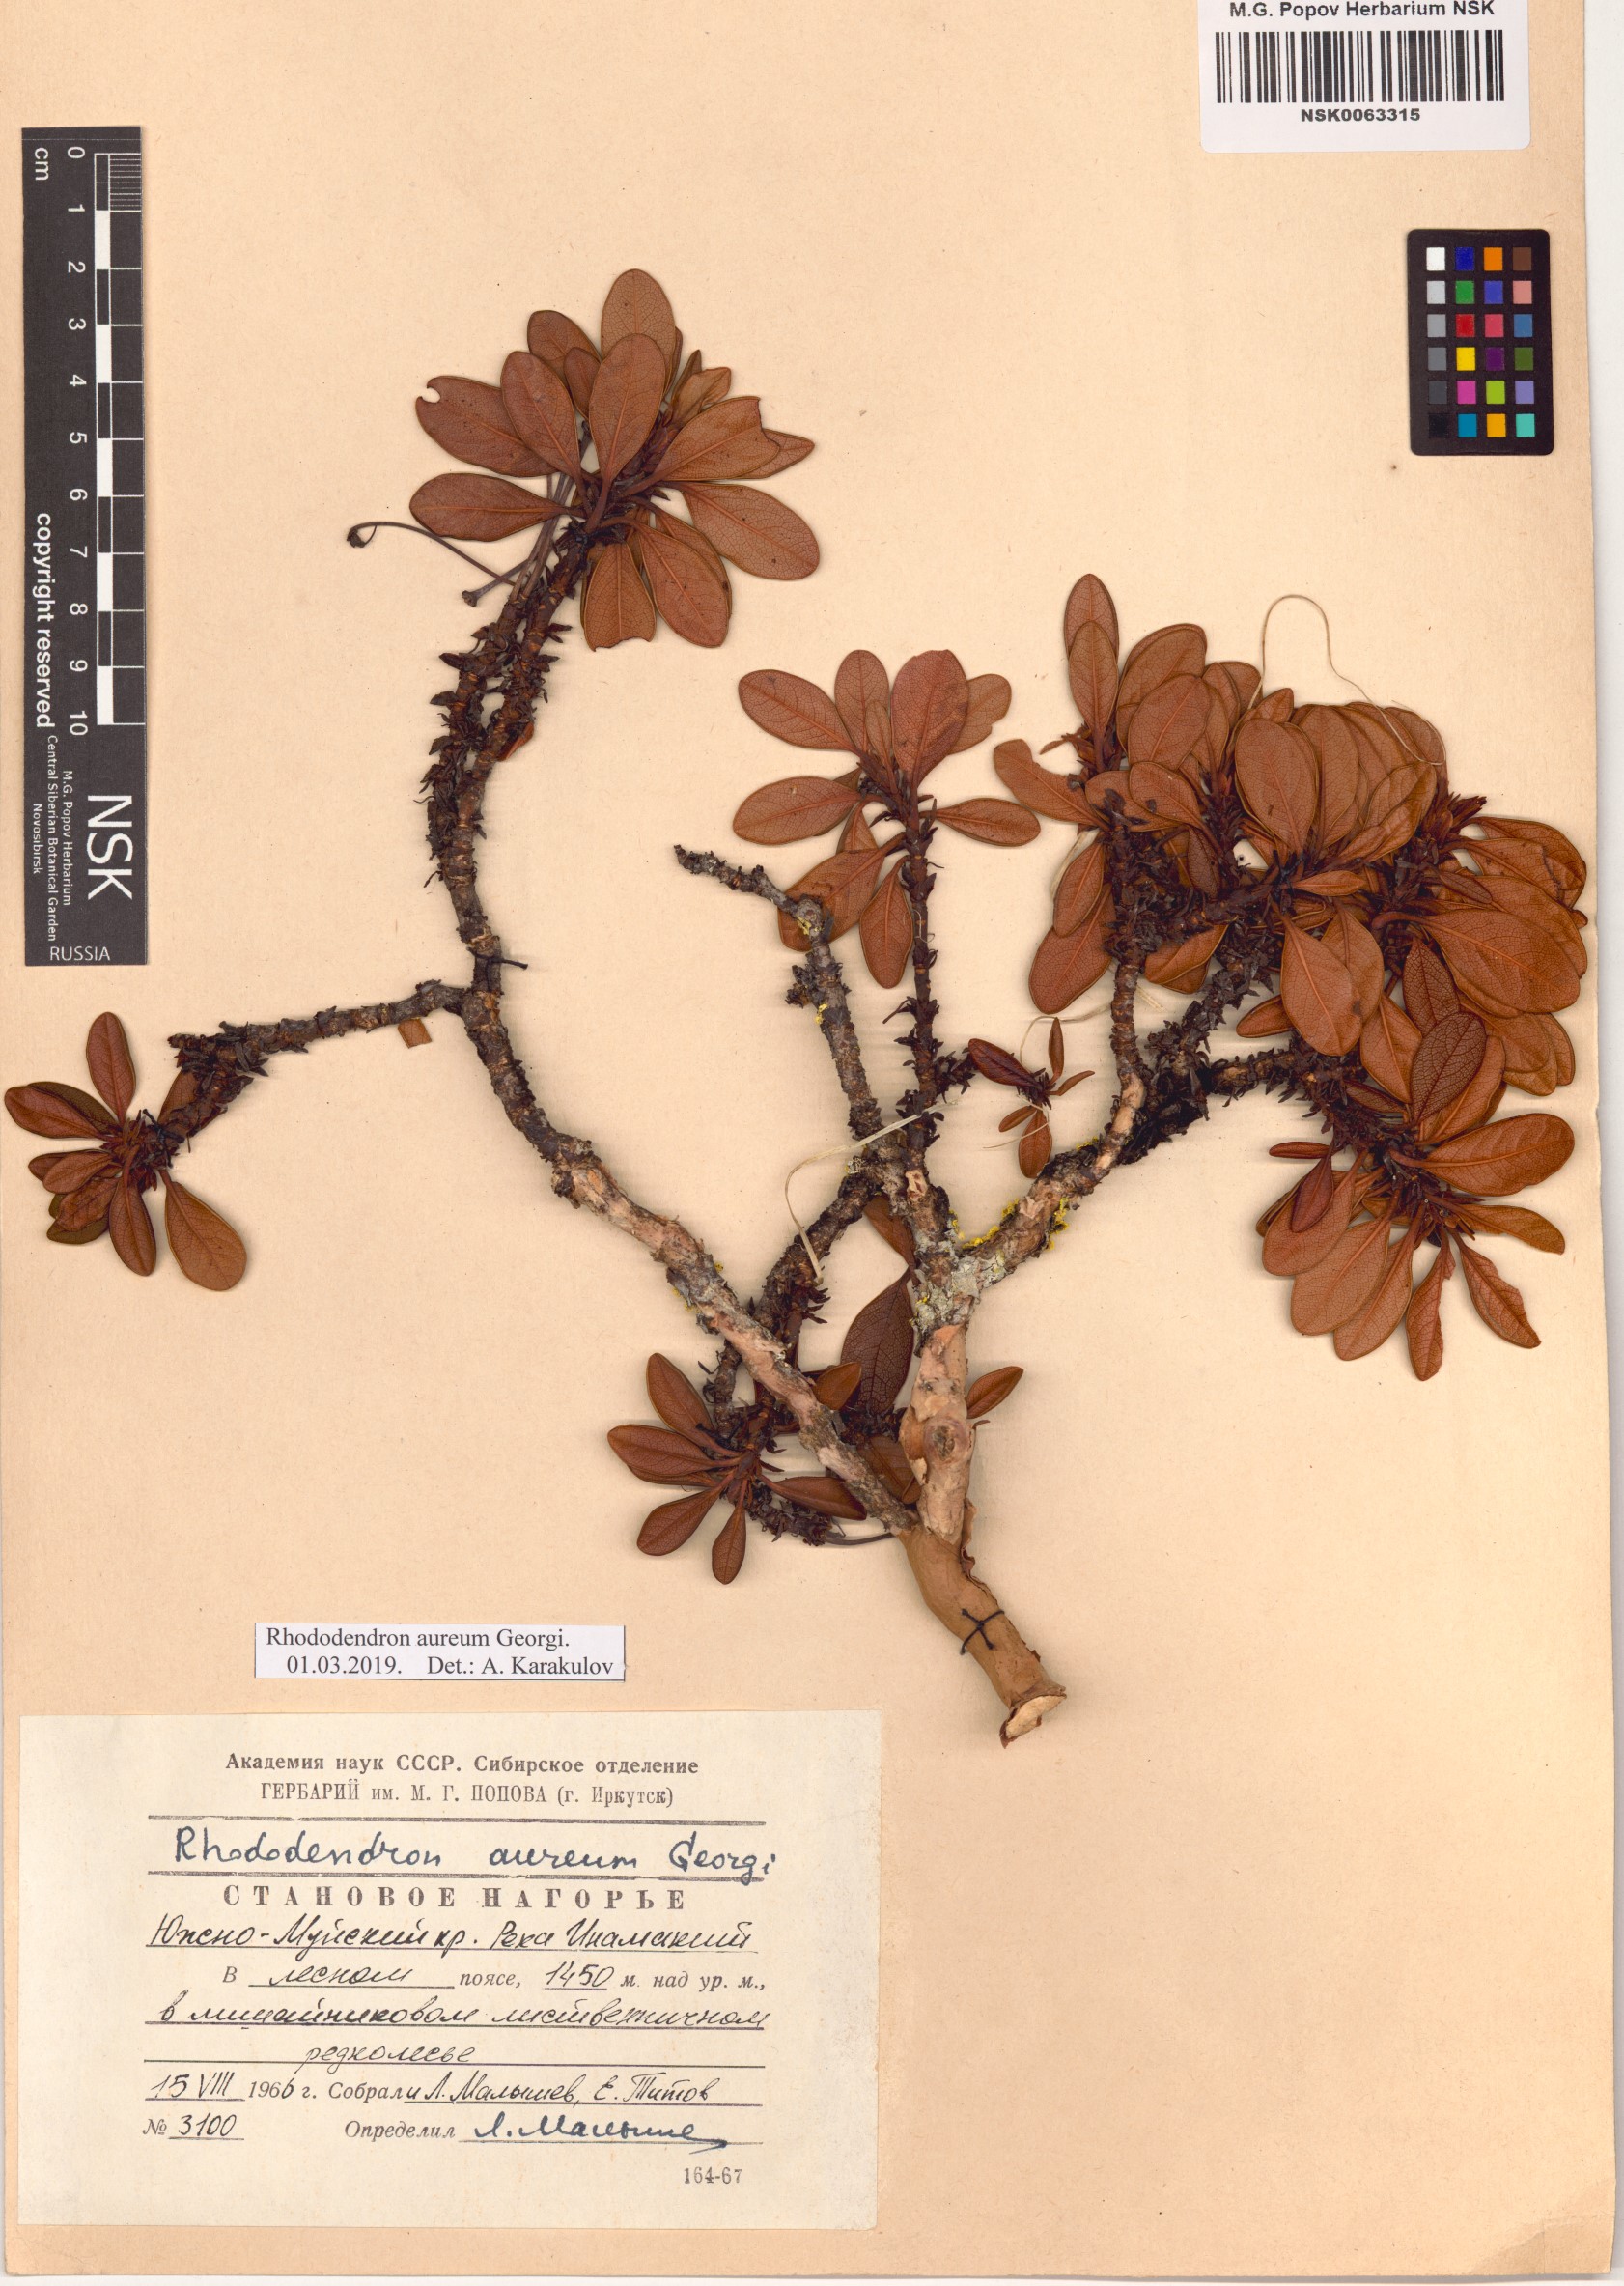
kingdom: Plantae
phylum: Tracheophyta
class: Magnoliopsida
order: Ericales
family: Ericaceae
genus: Rhododendron
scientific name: Rhododendron aureum
